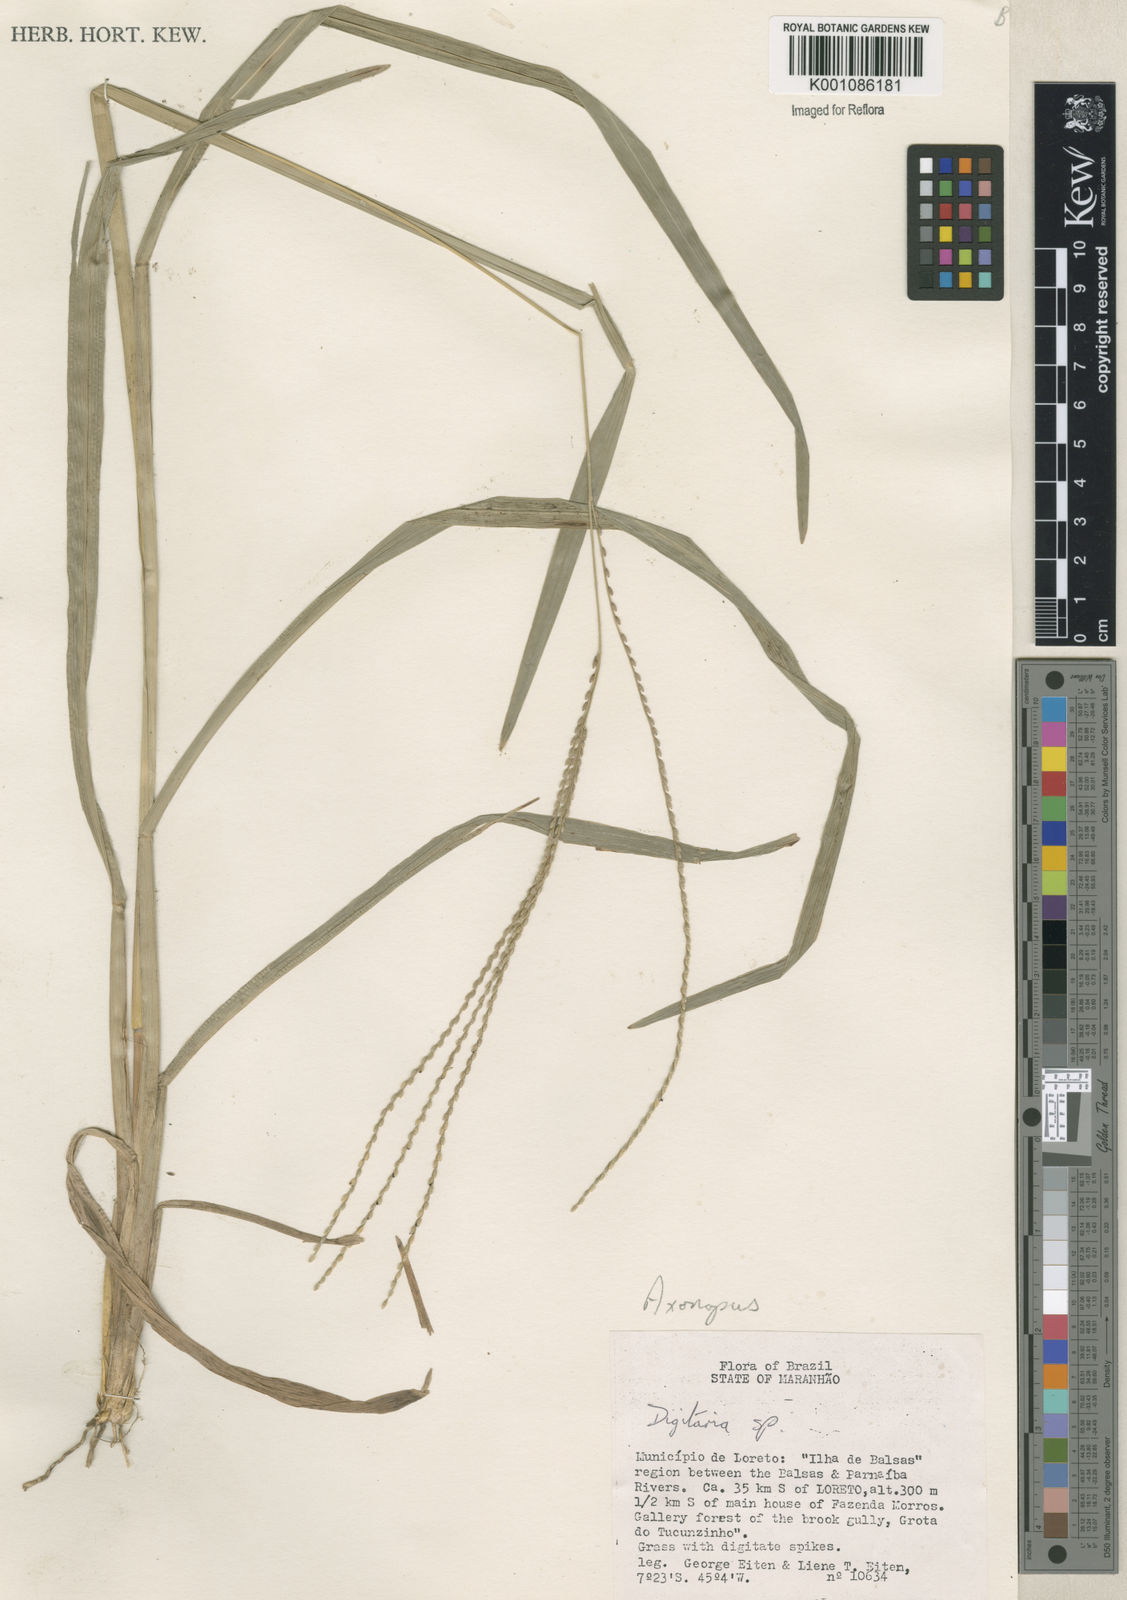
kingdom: Plantae
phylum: Tracheophyta
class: Liliopsida
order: Poales
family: Poaceae
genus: Axonopus
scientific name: Axonopus
